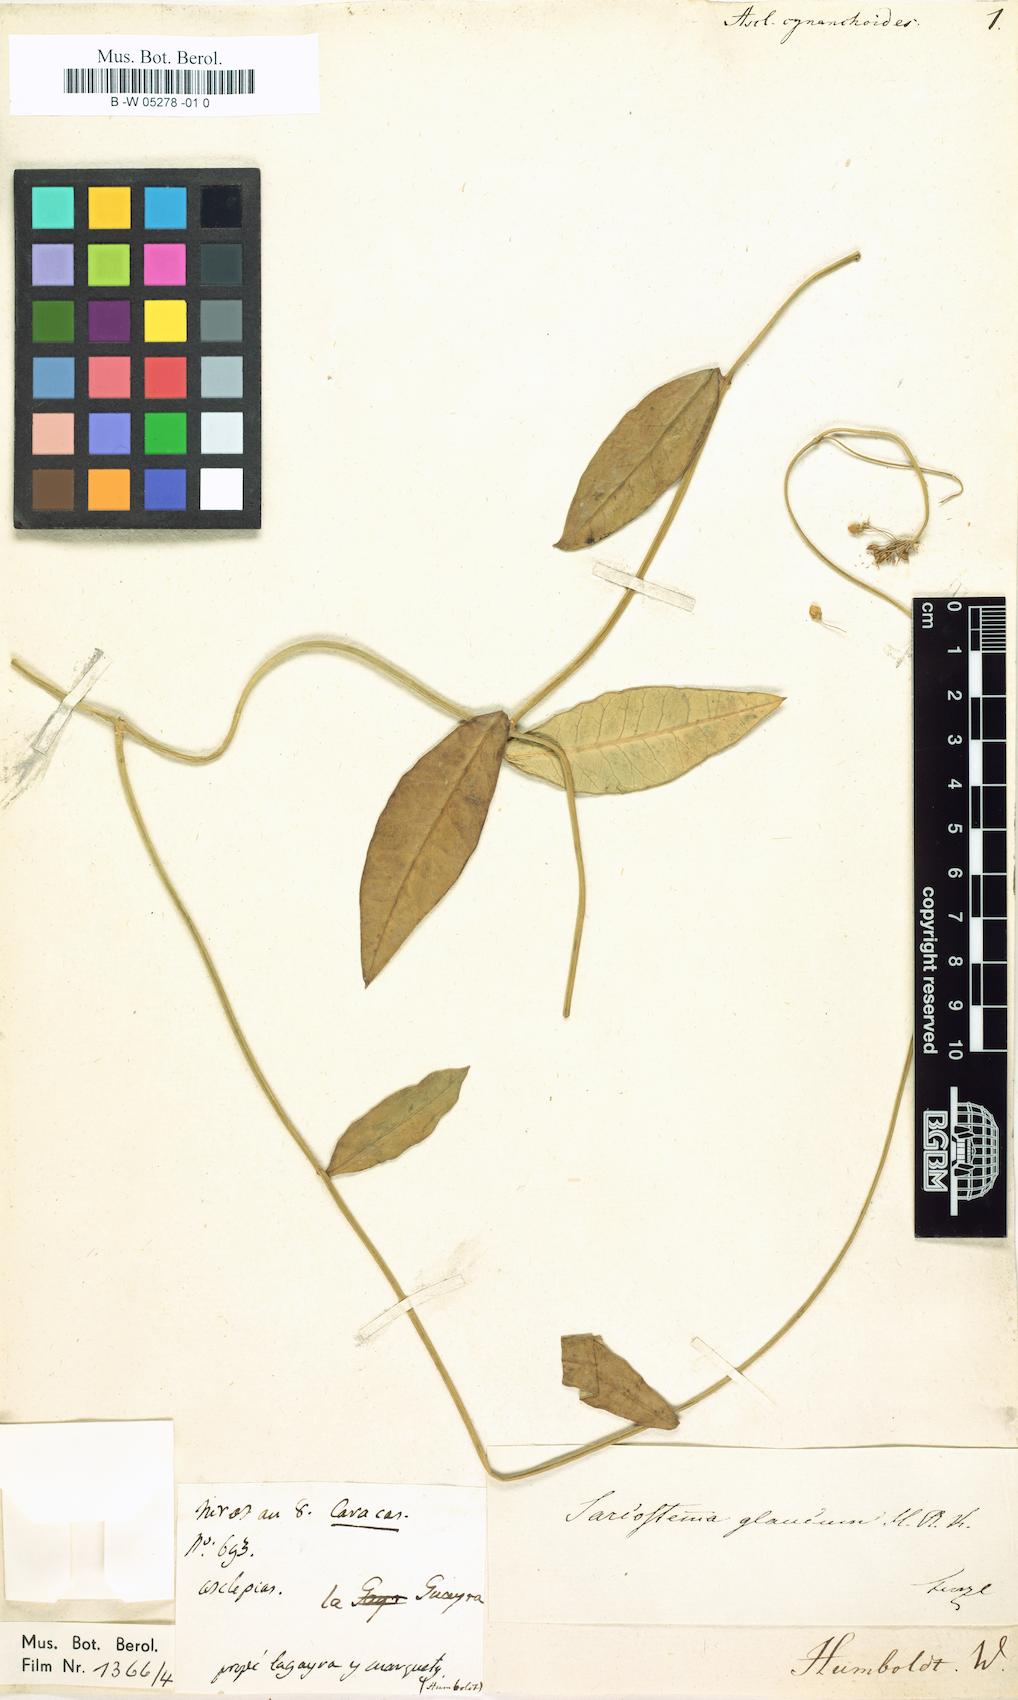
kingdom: Plantae
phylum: Tracheophyta
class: Magnoliopsida
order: Gentianales
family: Apocynaceae
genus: Funastrum
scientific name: Funastrum glaucum
